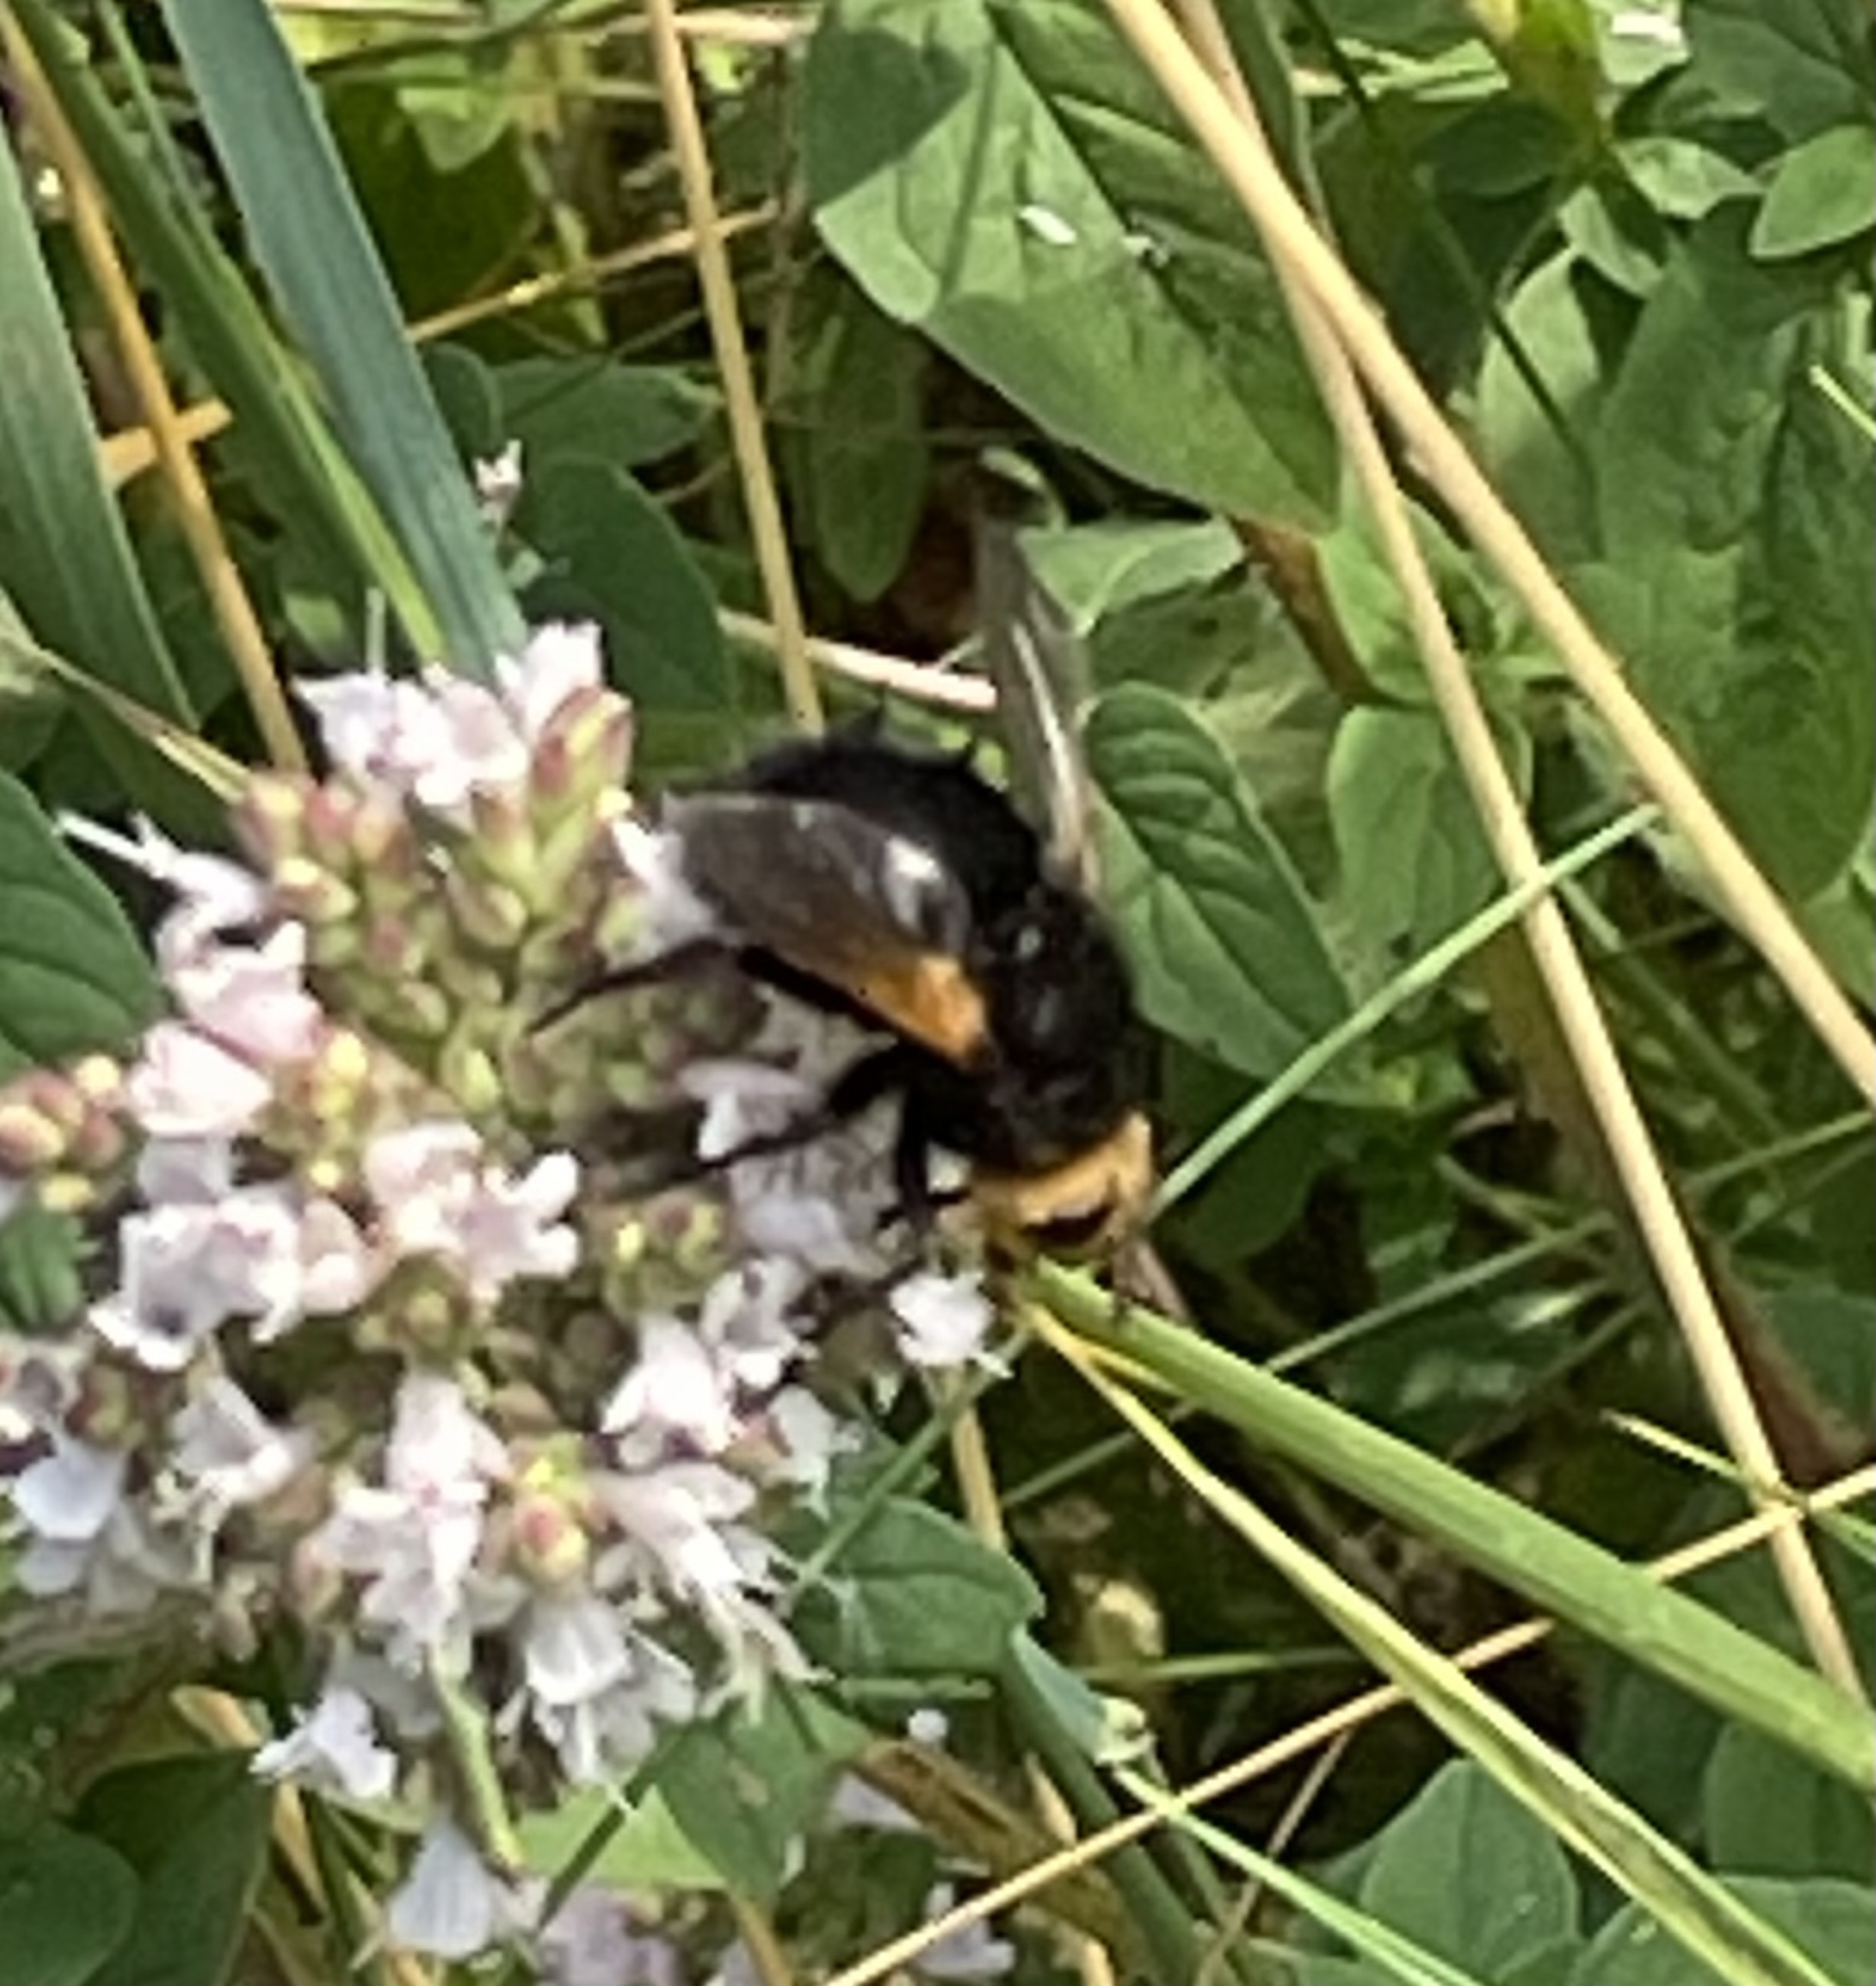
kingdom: Animalia
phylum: Arthropoda
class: Insecta
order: Diptera
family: Tachinidae
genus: Tachina
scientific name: Tachina grossa
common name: Kæmpefluen Harald
